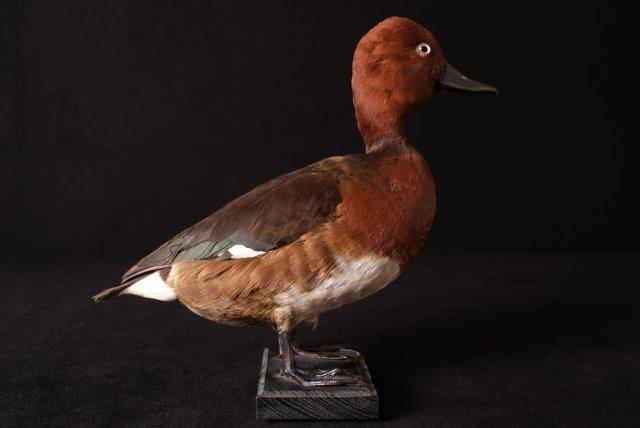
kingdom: Animalia
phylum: Chordata
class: Aves
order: Anseriformes
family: Anatidae
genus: Aythya
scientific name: Aythya nyroca
